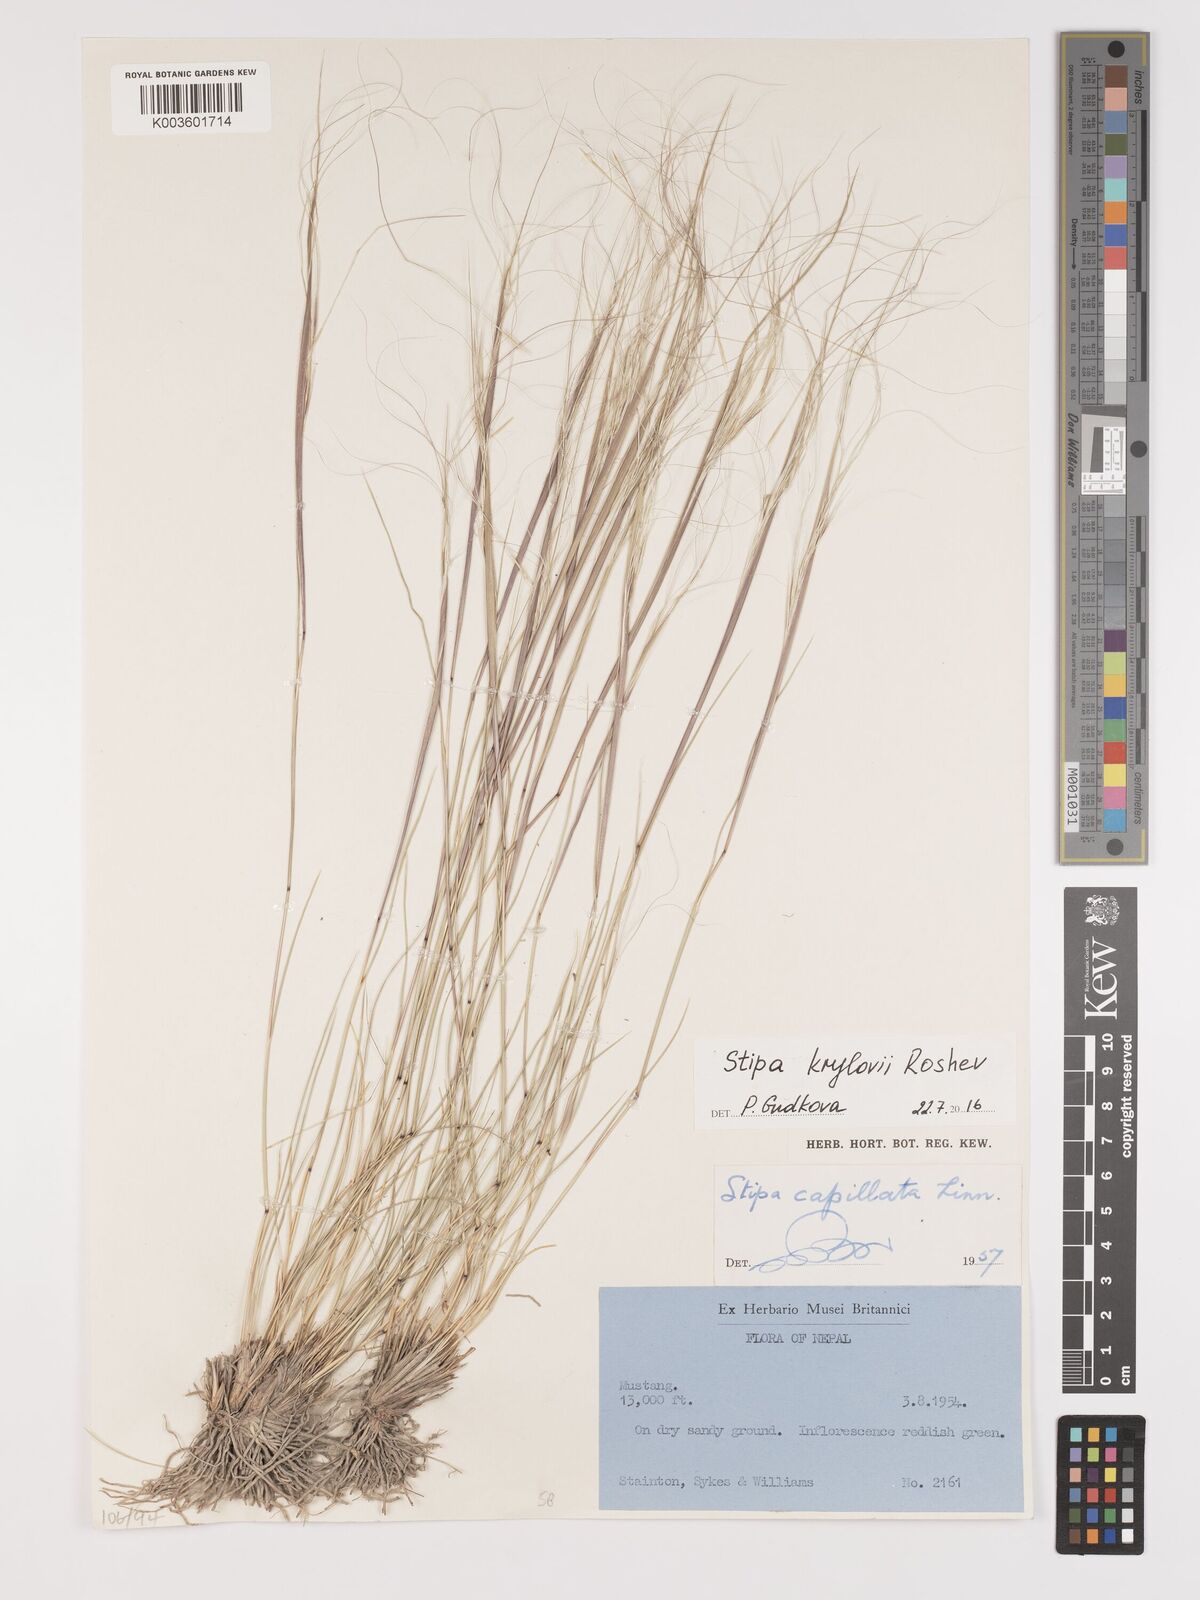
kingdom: Plantae
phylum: Tracheophyta
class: Liliopsida
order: Poales
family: Poaceae
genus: Stipa
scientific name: Stipa krylovii
